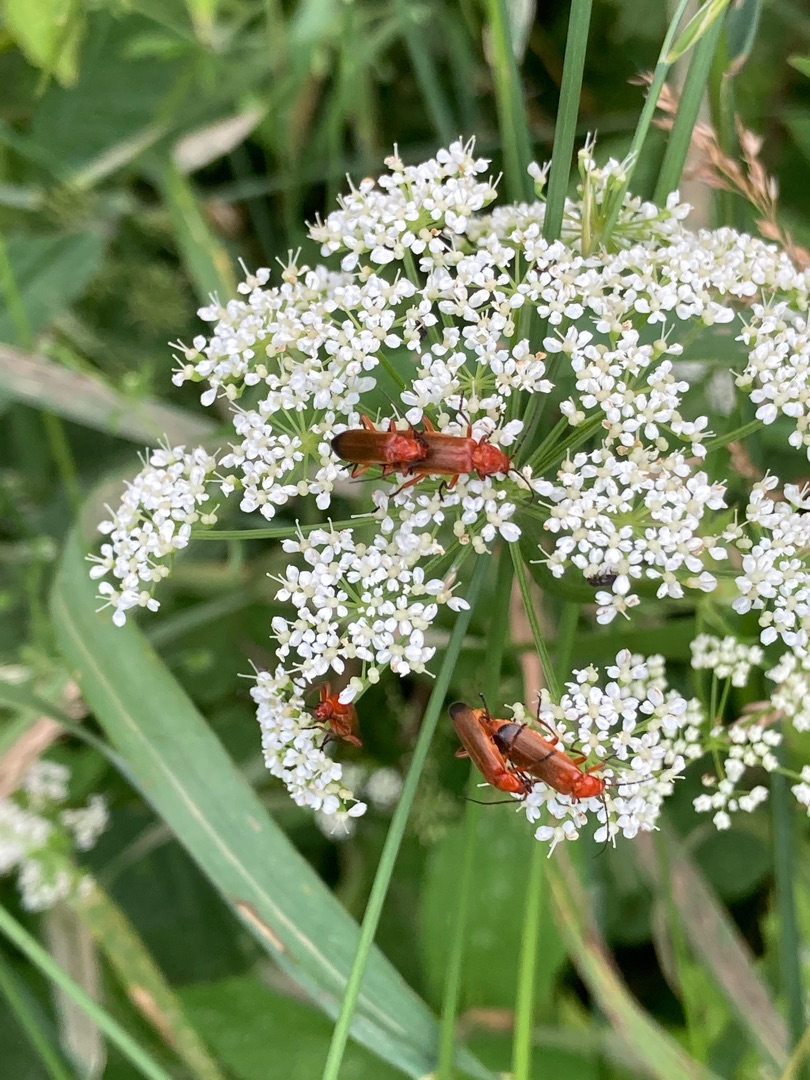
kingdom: Animalia
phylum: Arthropoda
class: Insecta
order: Coleoptera
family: Cantharidae
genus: Rhagonycha
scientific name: Rhagonycha fulva
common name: Præstebille
